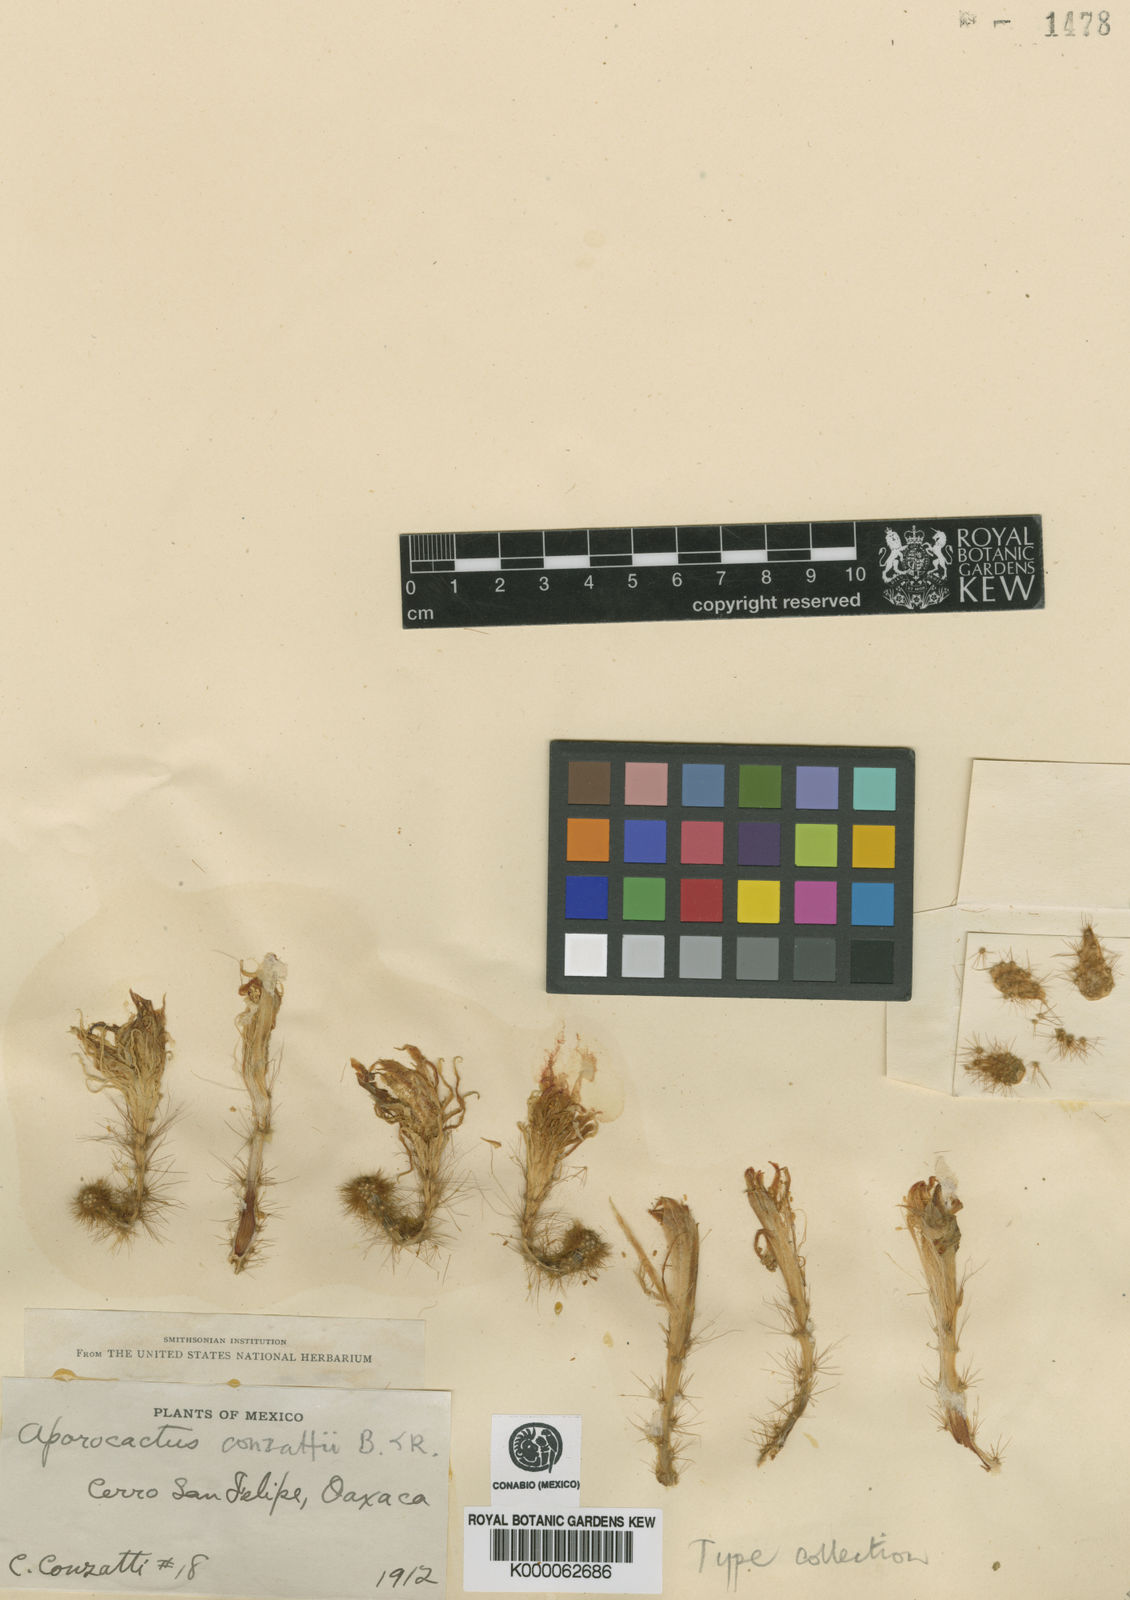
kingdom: Plantae
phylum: Tracheophyta
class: Magnoliopsida
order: Caryophyllales
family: Cactaceae
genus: Aporocactus
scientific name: Aporocactus martianus
